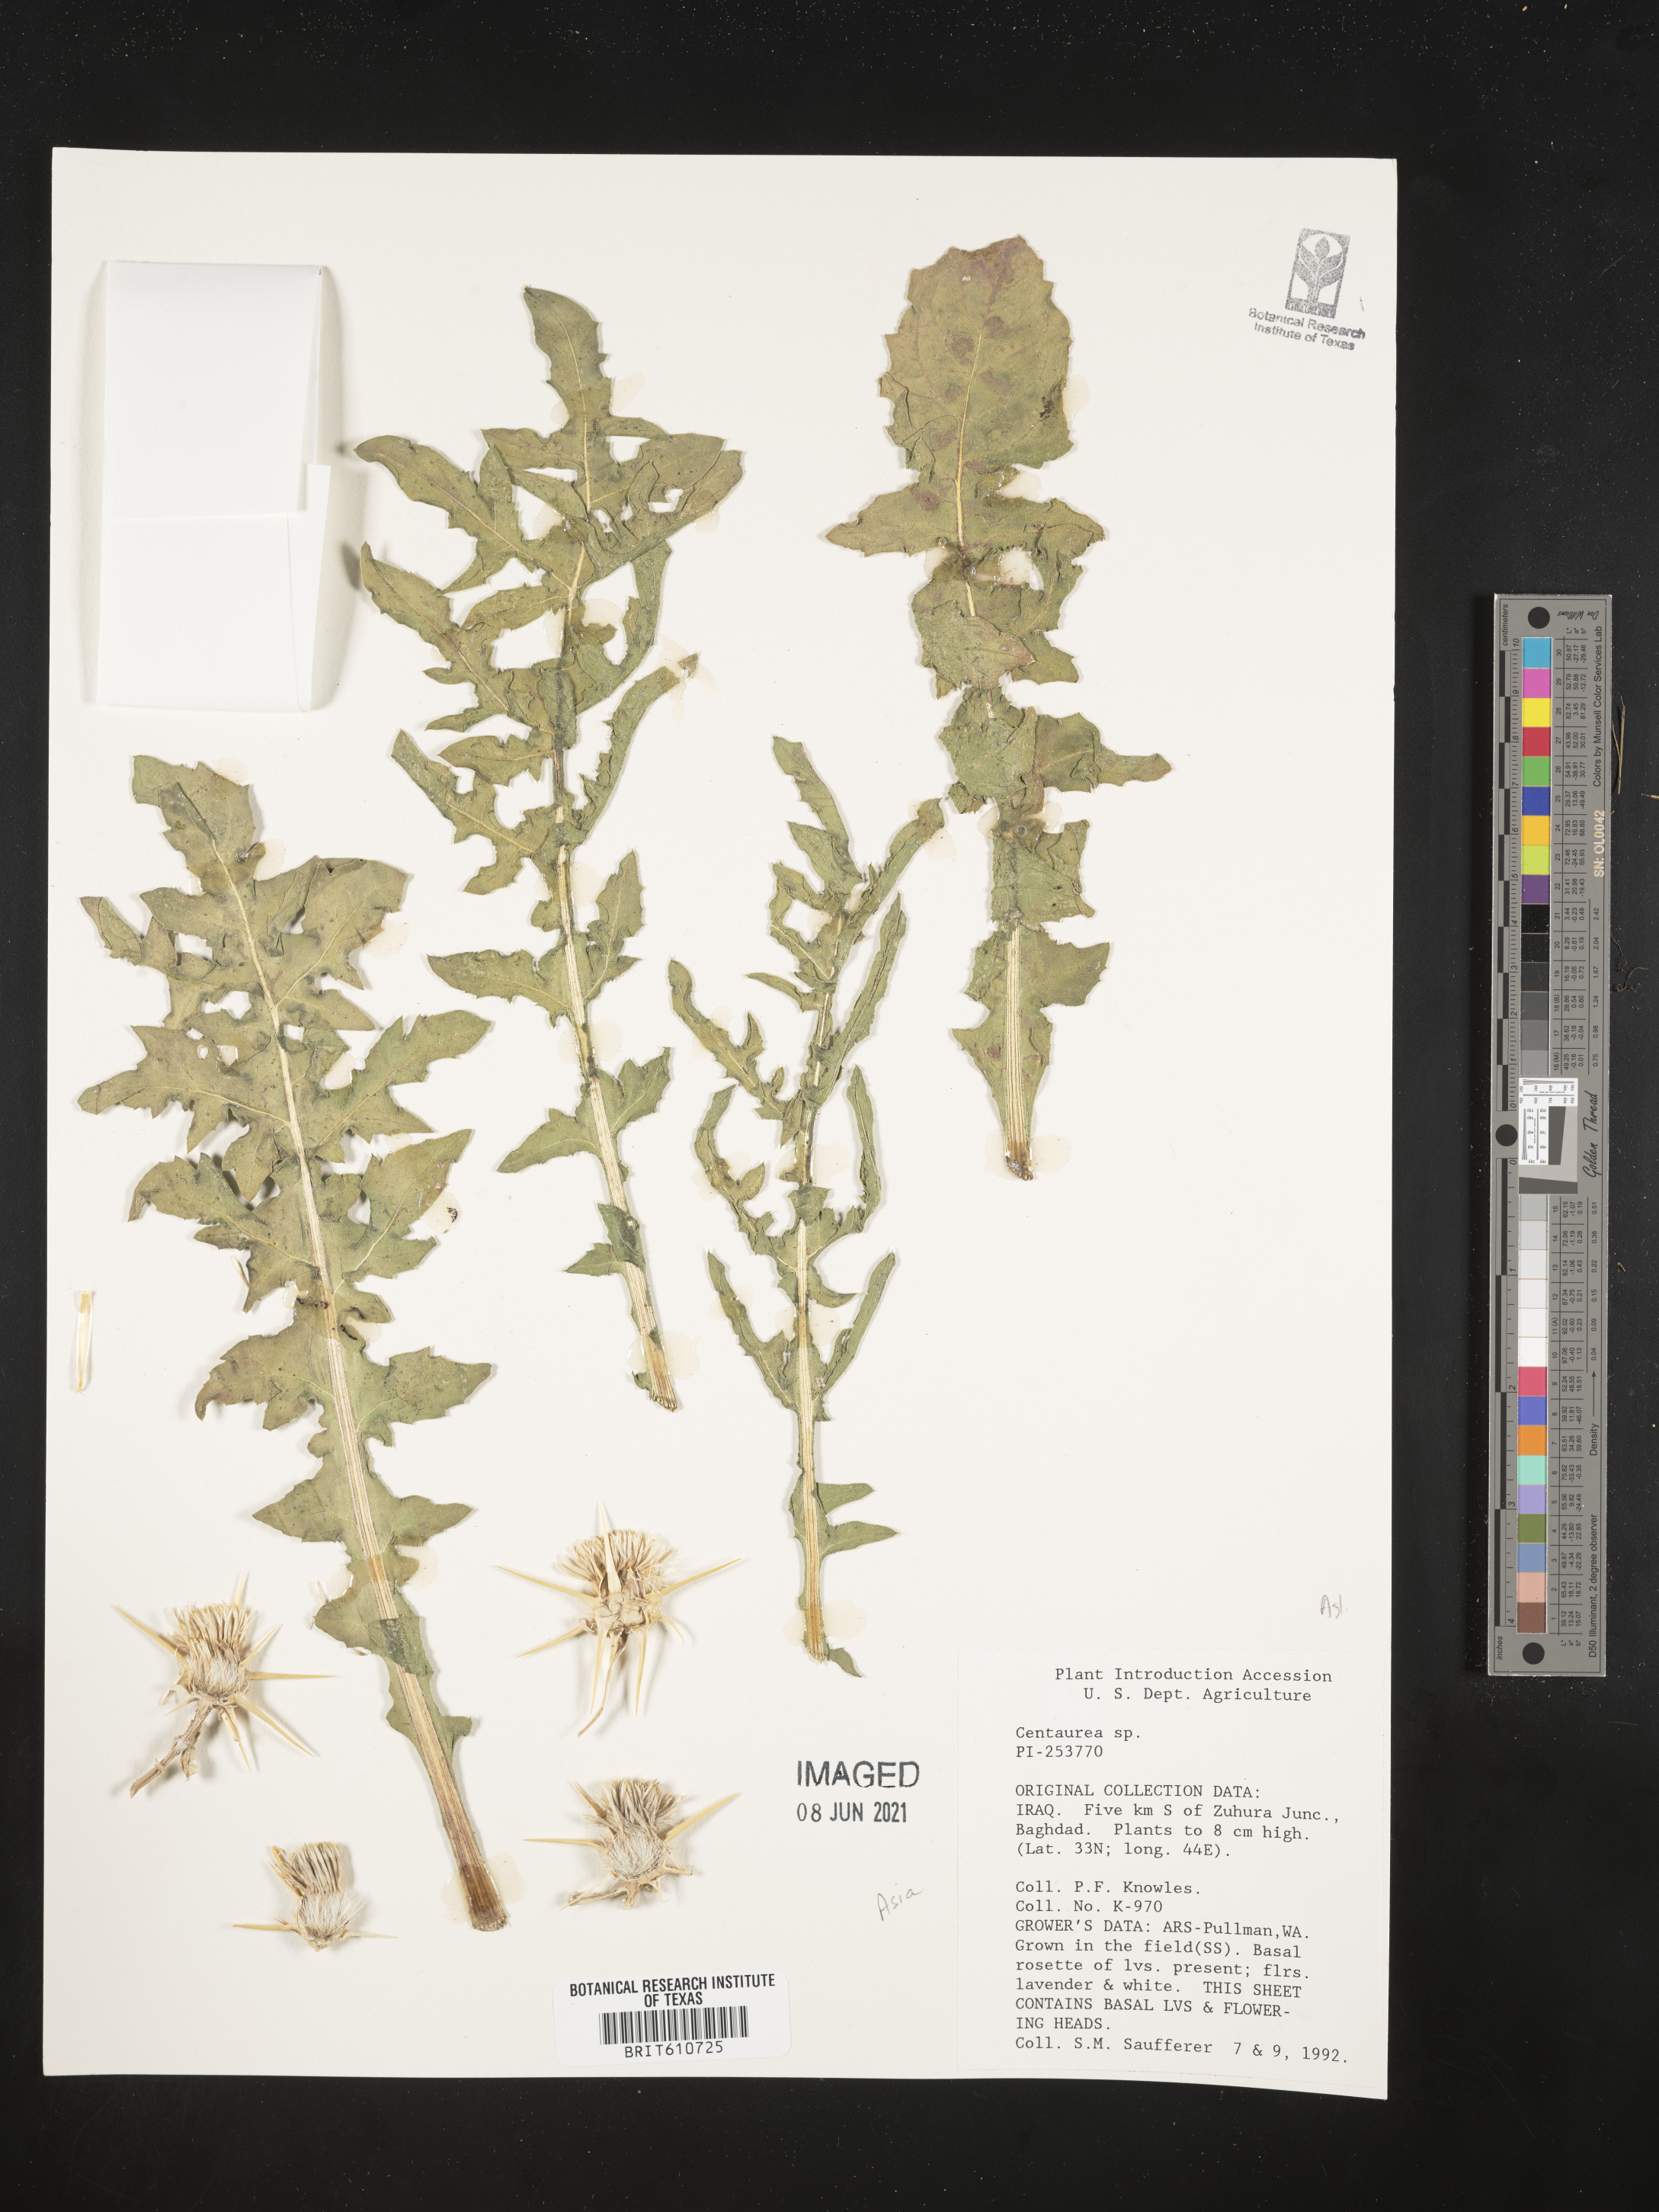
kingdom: Plantae
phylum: Tracheophyta
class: Magnoliopsida
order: Asterales
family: Asteraceae
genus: Centaurea
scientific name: Centaurea
